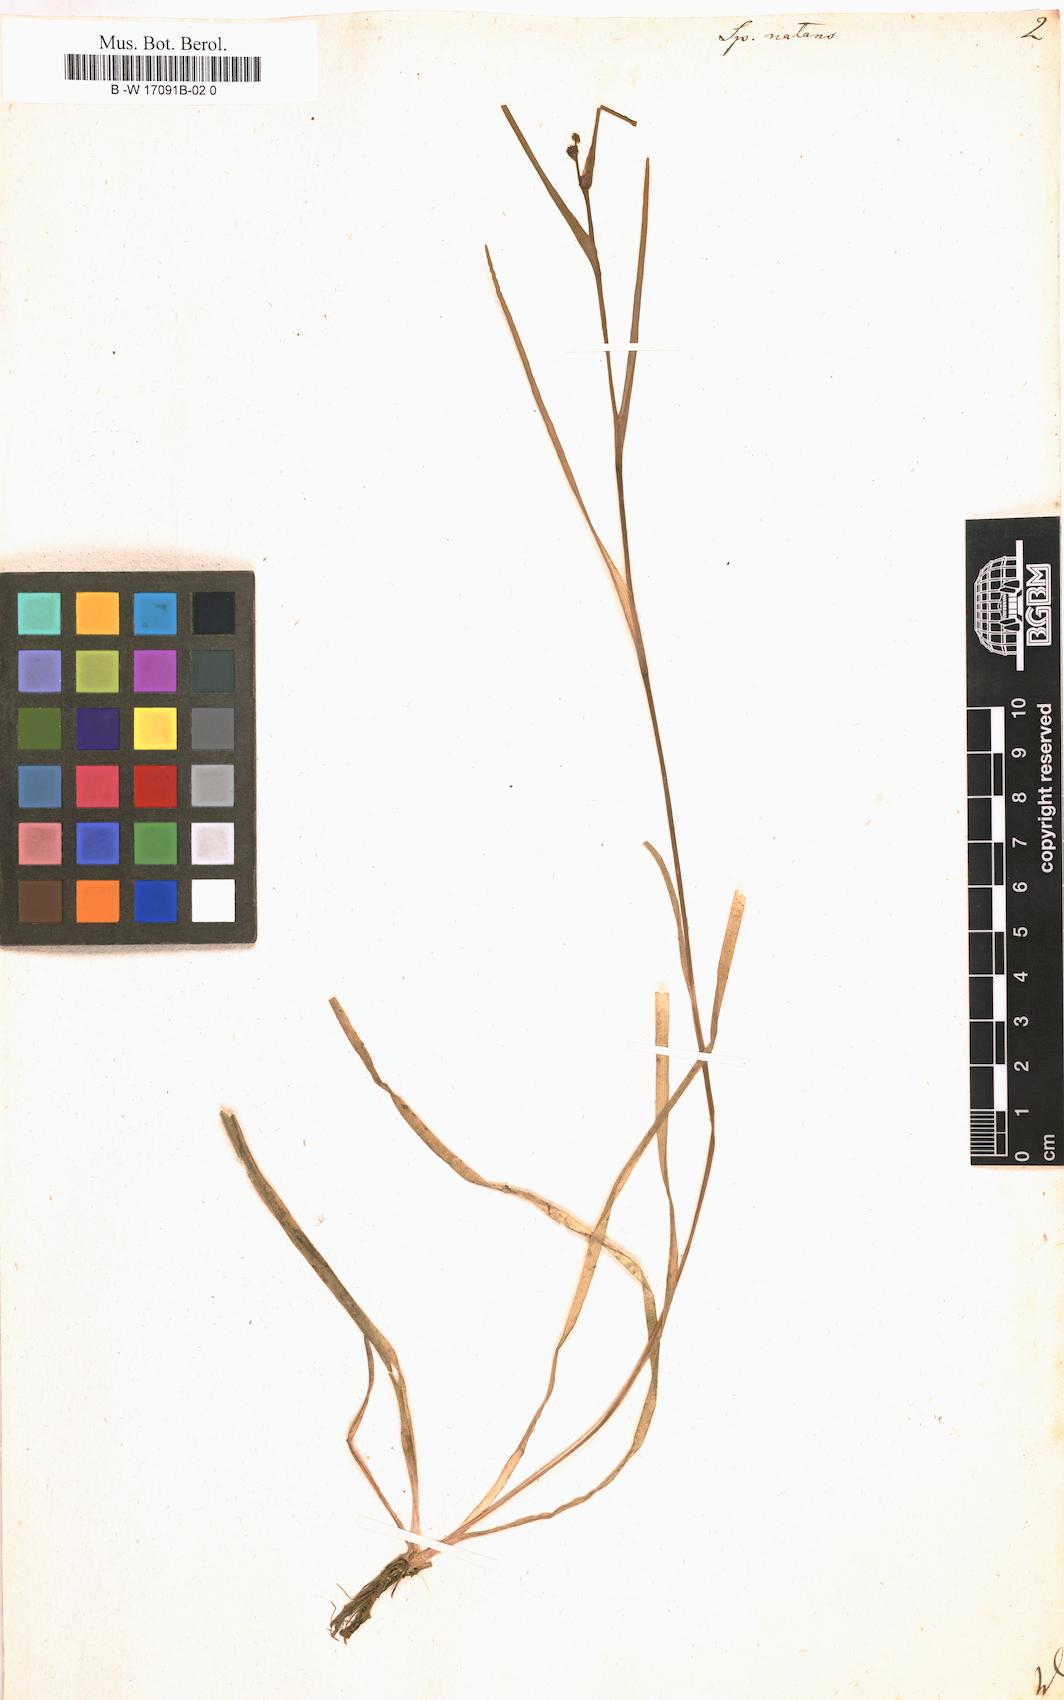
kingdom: Plantae
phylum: Tracheophyta
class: Liliopsida
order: Poales
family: Typhaceae
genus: Sparganium
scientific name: Sparganium natans
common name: Least bur-reed
